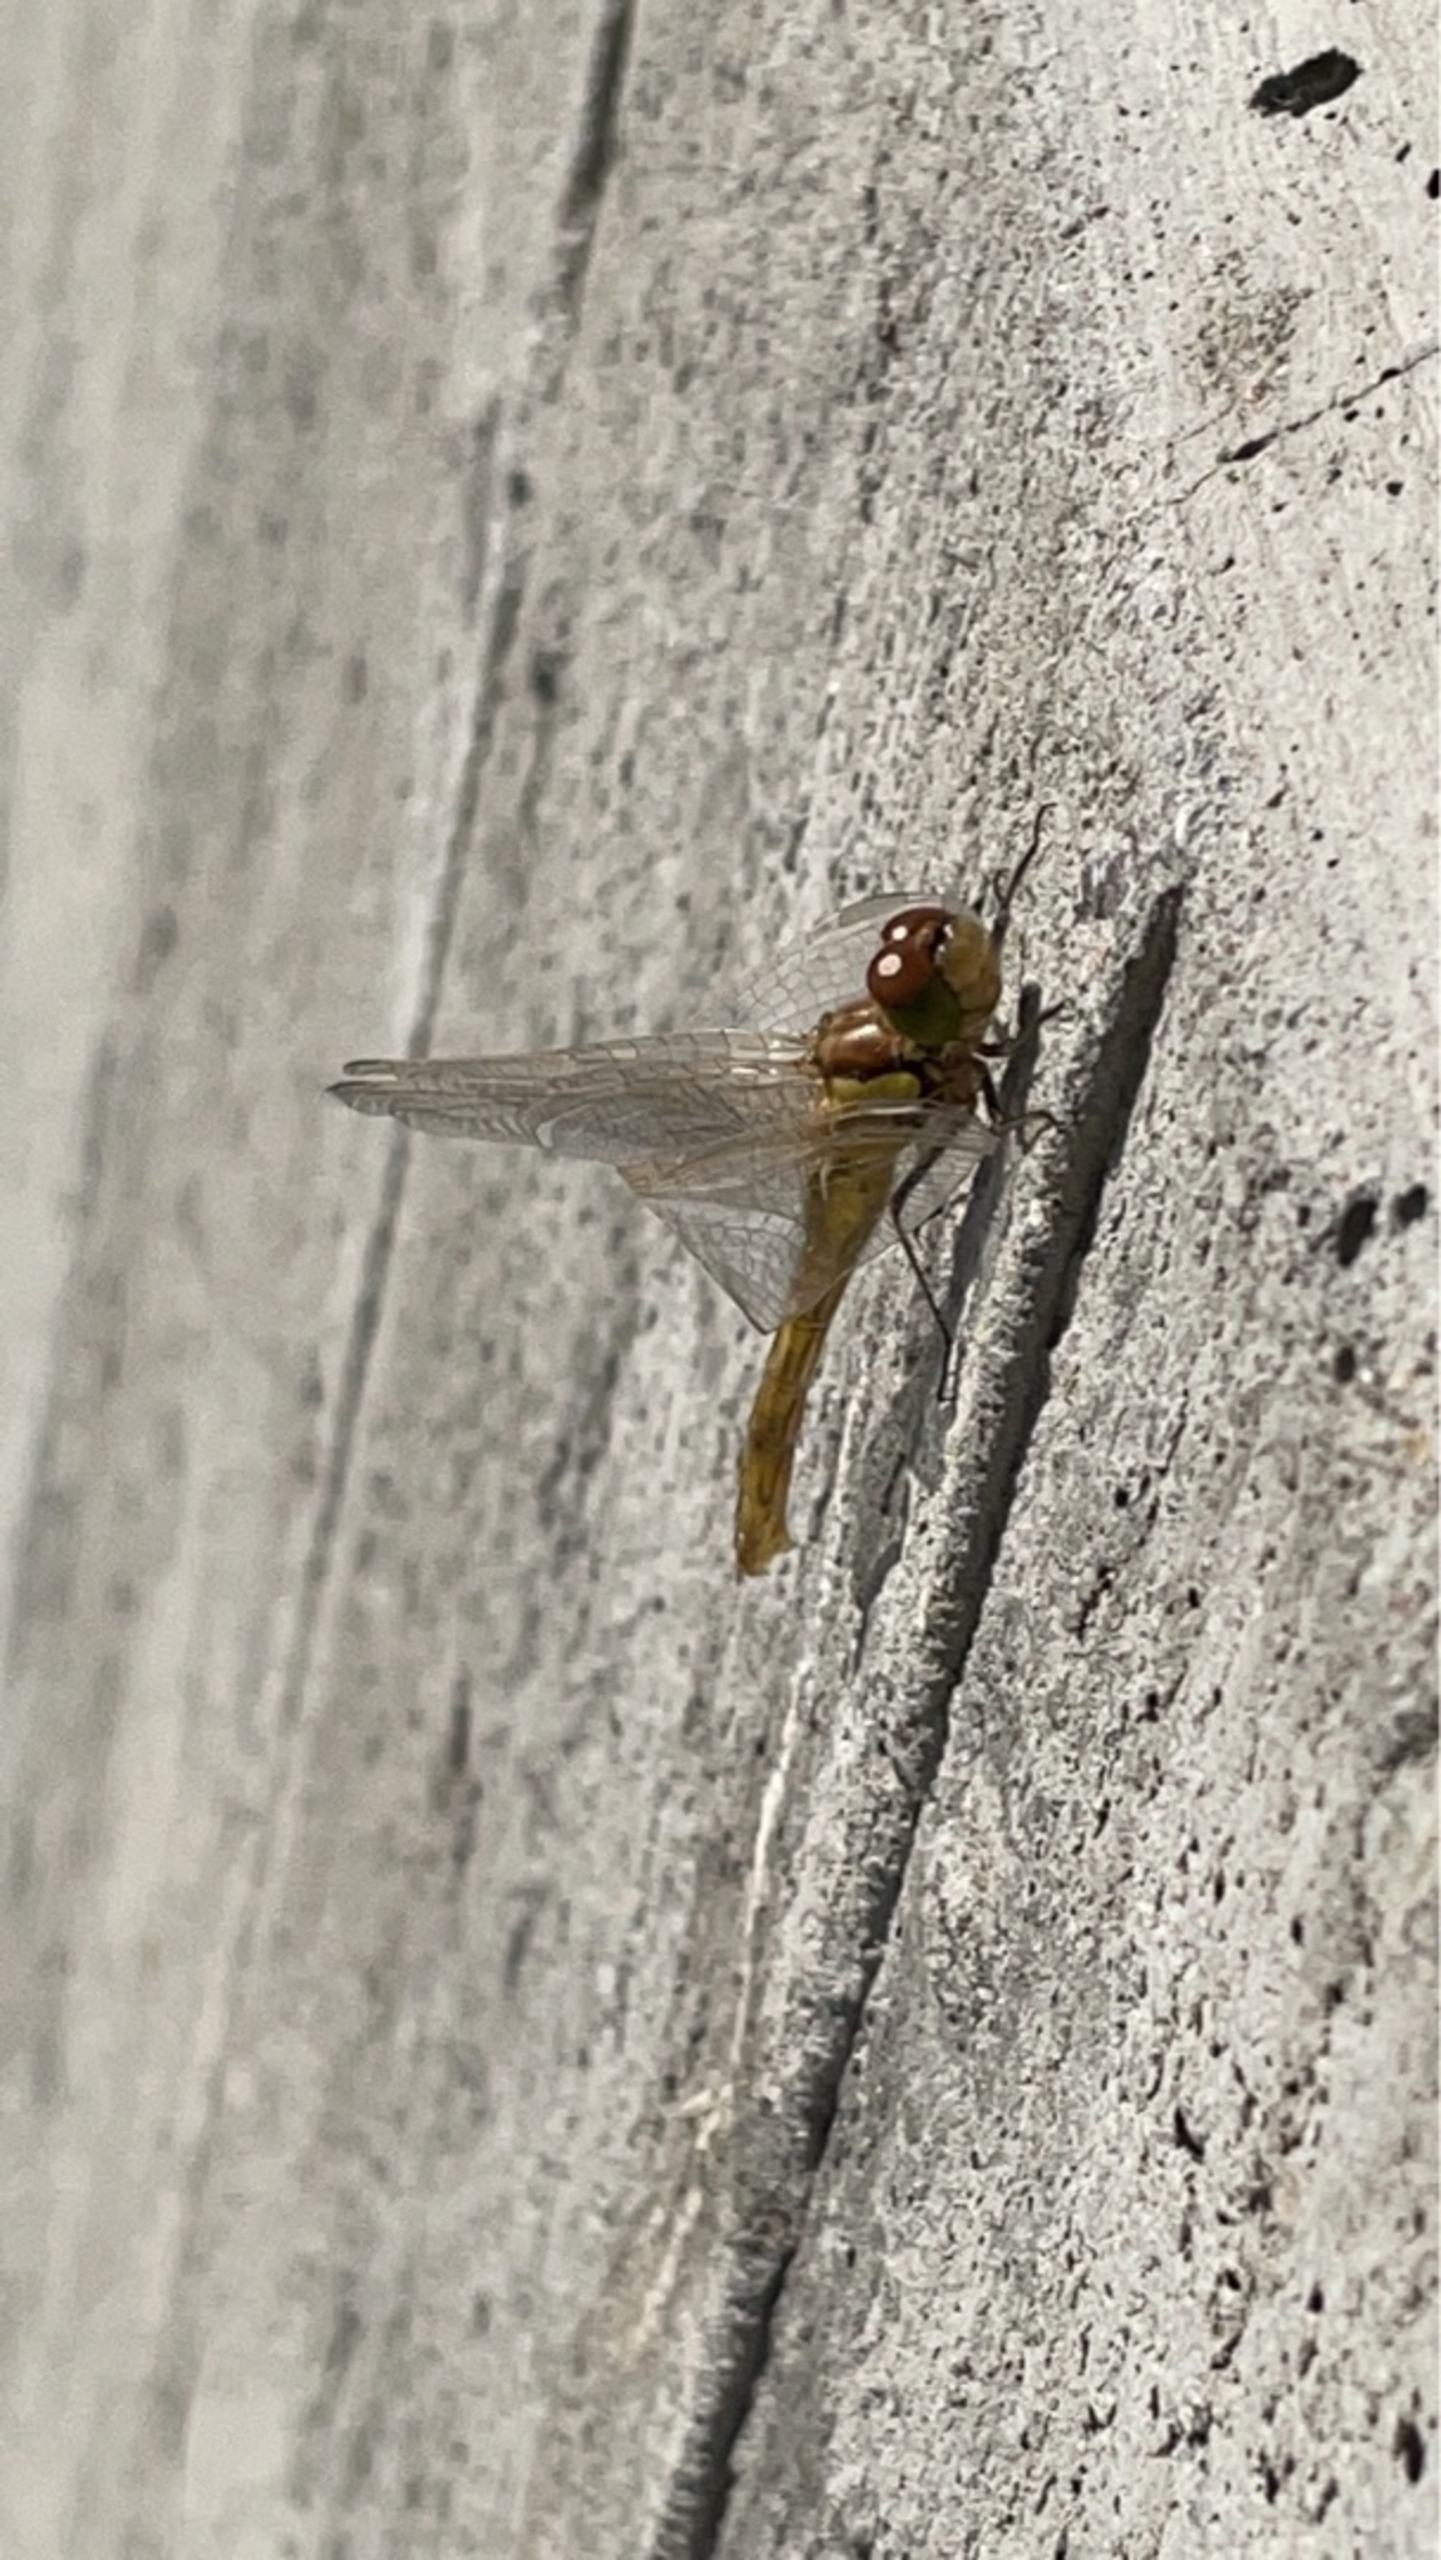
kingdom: Animalia
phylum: Arthropoda
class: Insecta
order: Odonata
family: Libellulidae
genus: Sympetrum
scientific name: Sympetrum vulgatum
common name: Almindelig hedelibel
